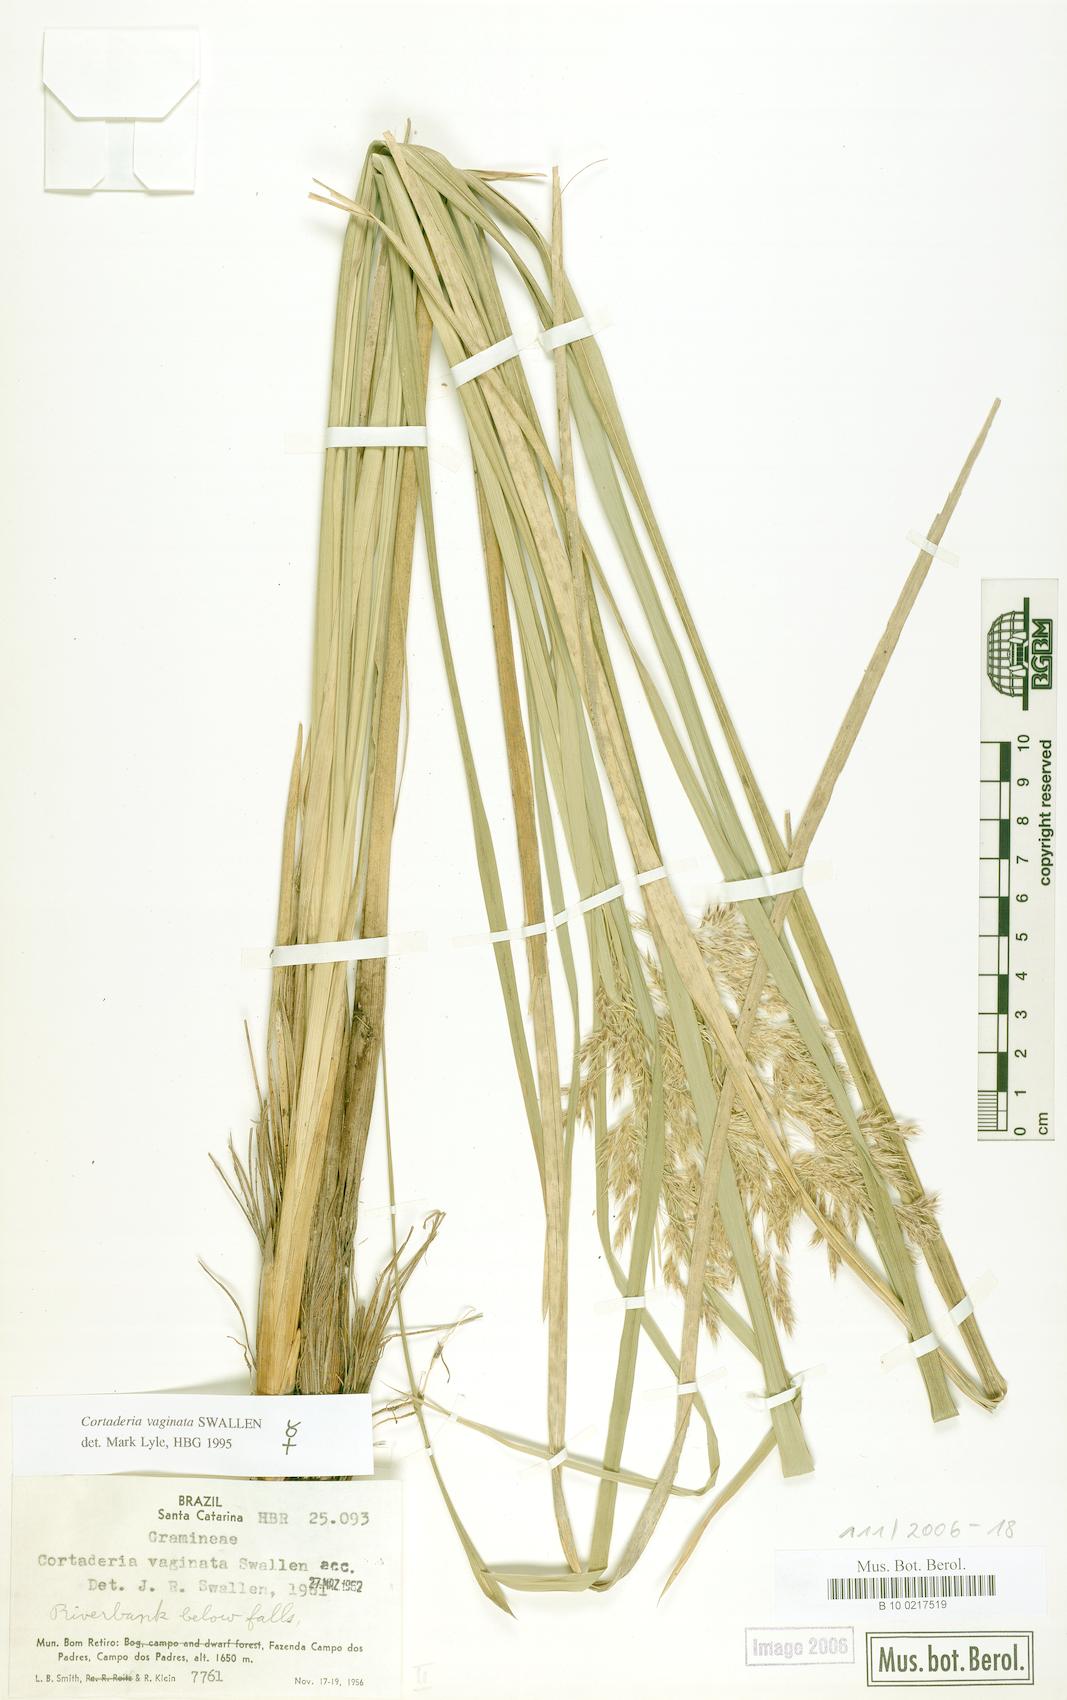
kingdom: Plantae
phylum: Tracheophyta
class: Liliopsida
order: Poales
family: Poaceae
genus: Cortaderia
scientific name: Cortaderia vaginata
